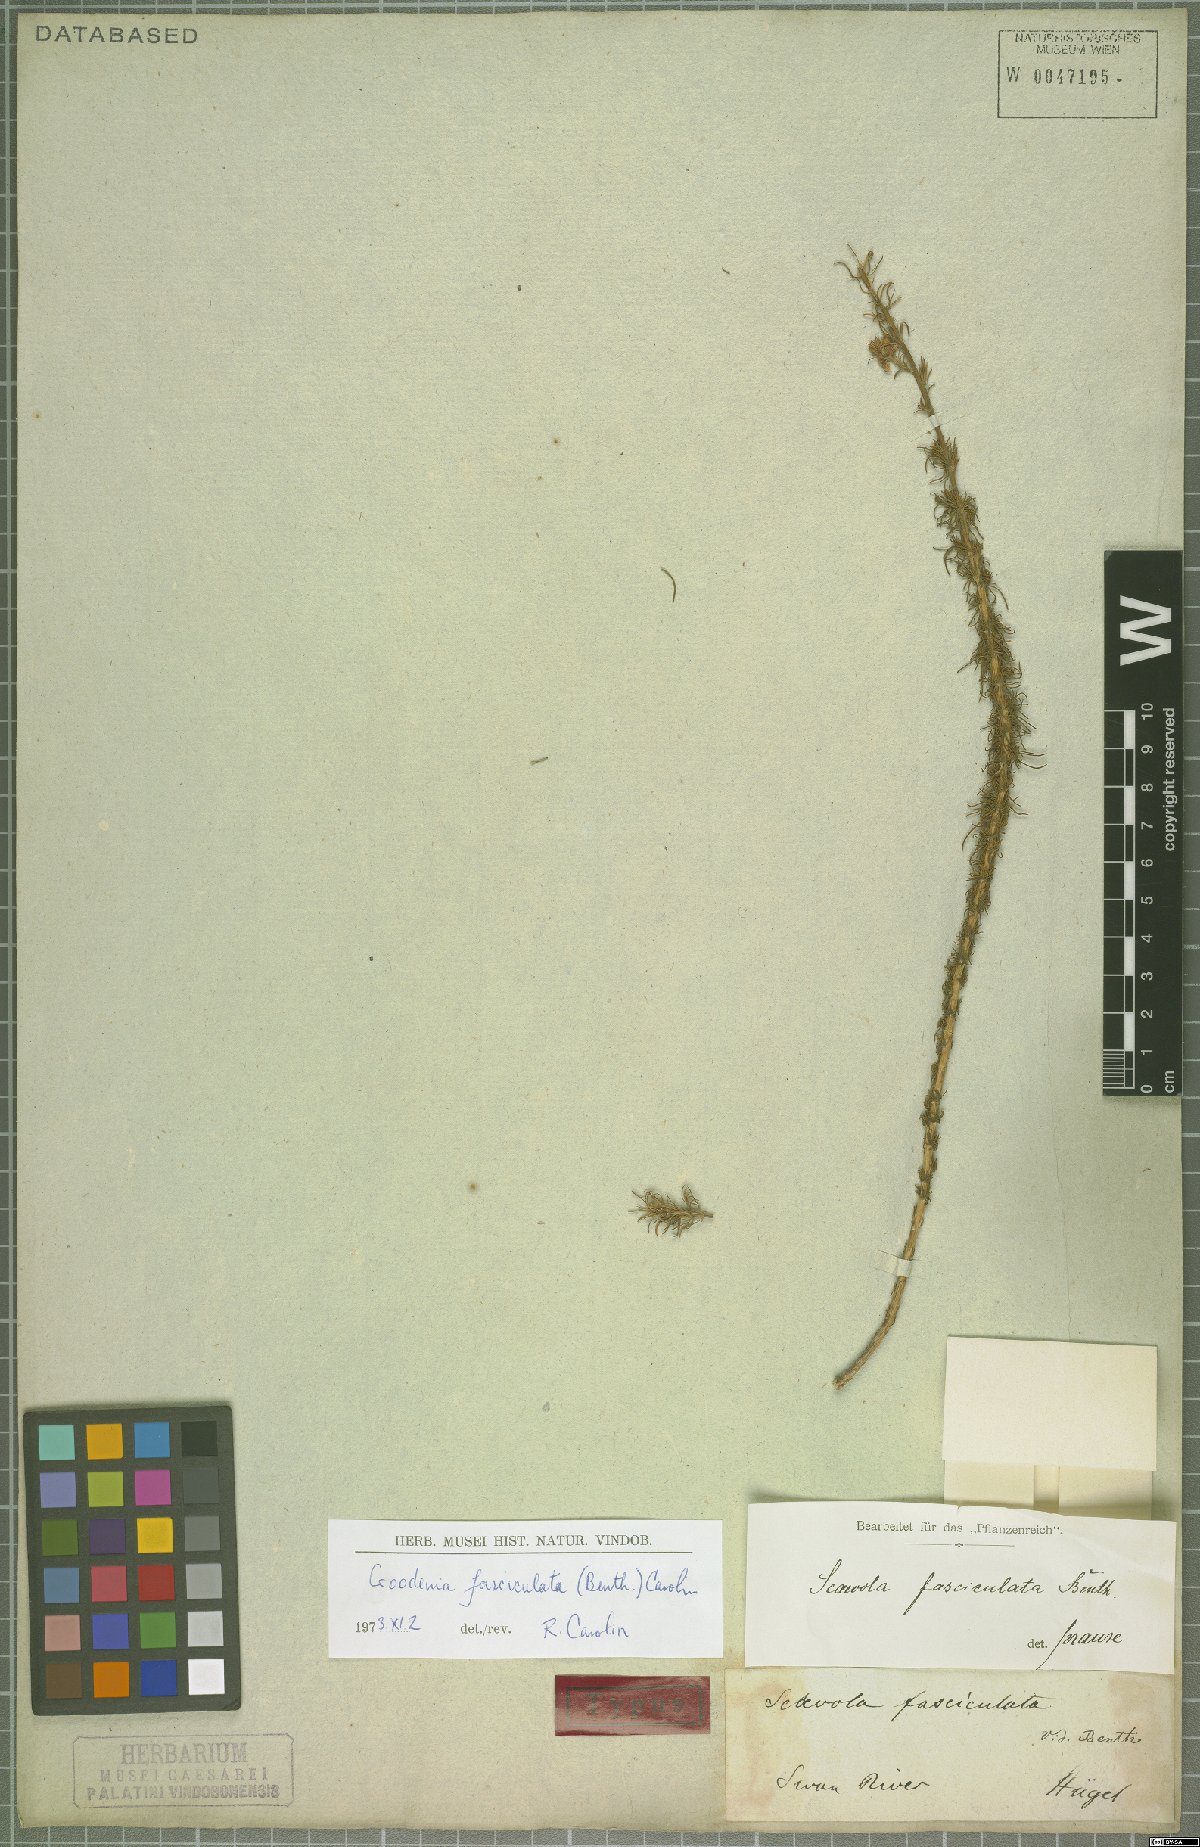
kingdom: Plantae
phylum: Tracheophyta
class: Magnoliopsida
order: Asterales
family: Goodeniaceae
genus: Goodenia
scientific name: Goodenia fasciculata
